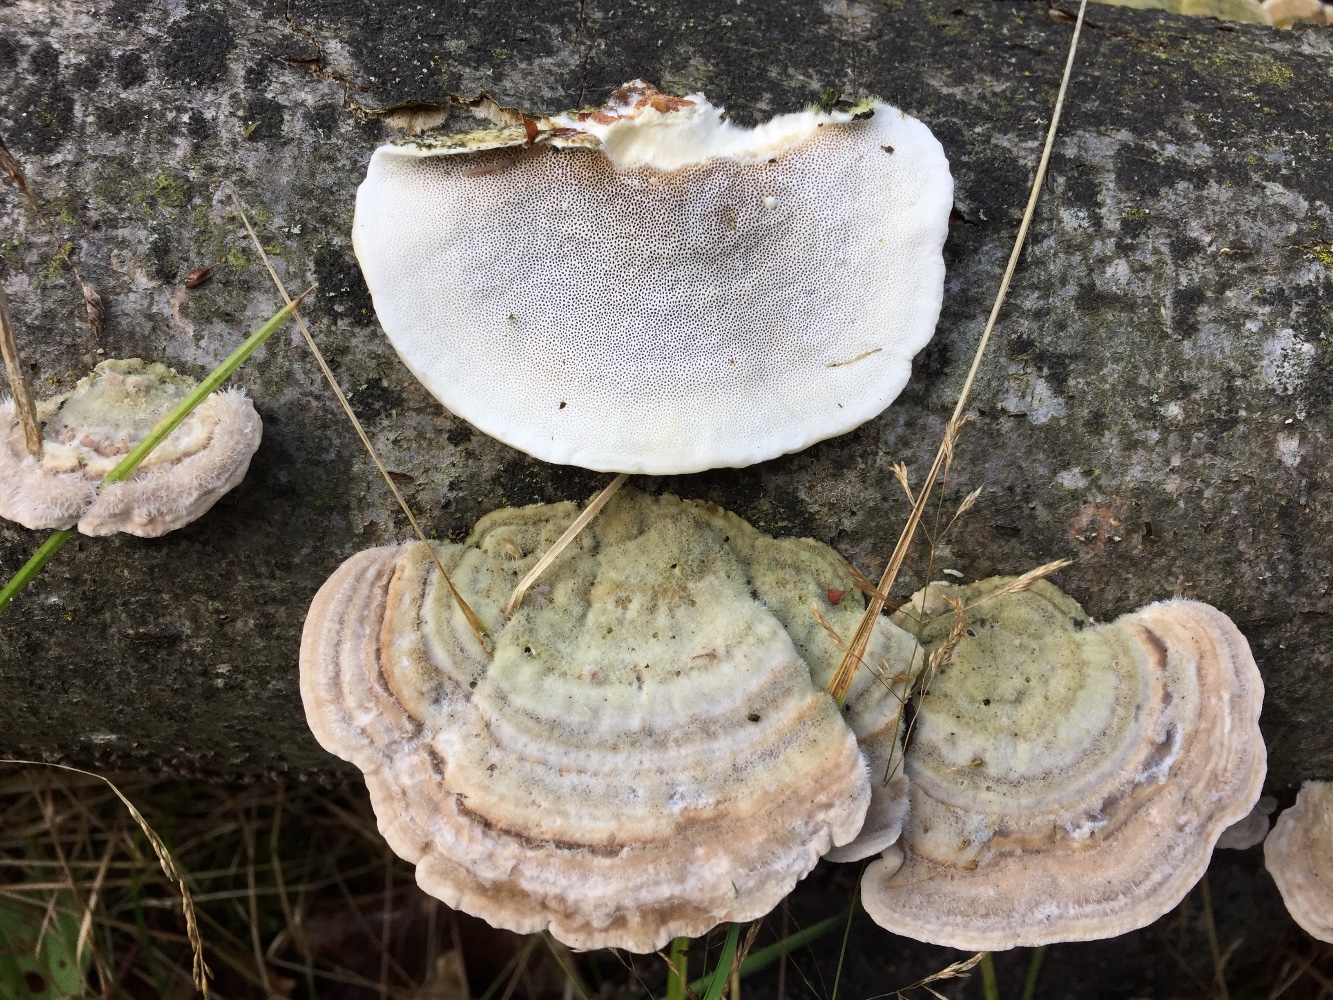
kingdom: Fungi
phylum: Basidiomycota
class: Agaricomycetes
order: Polyporales
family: Polyporaceae
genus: Trametes
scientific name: Trametes hirsuta
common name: håret læderporesvamp
